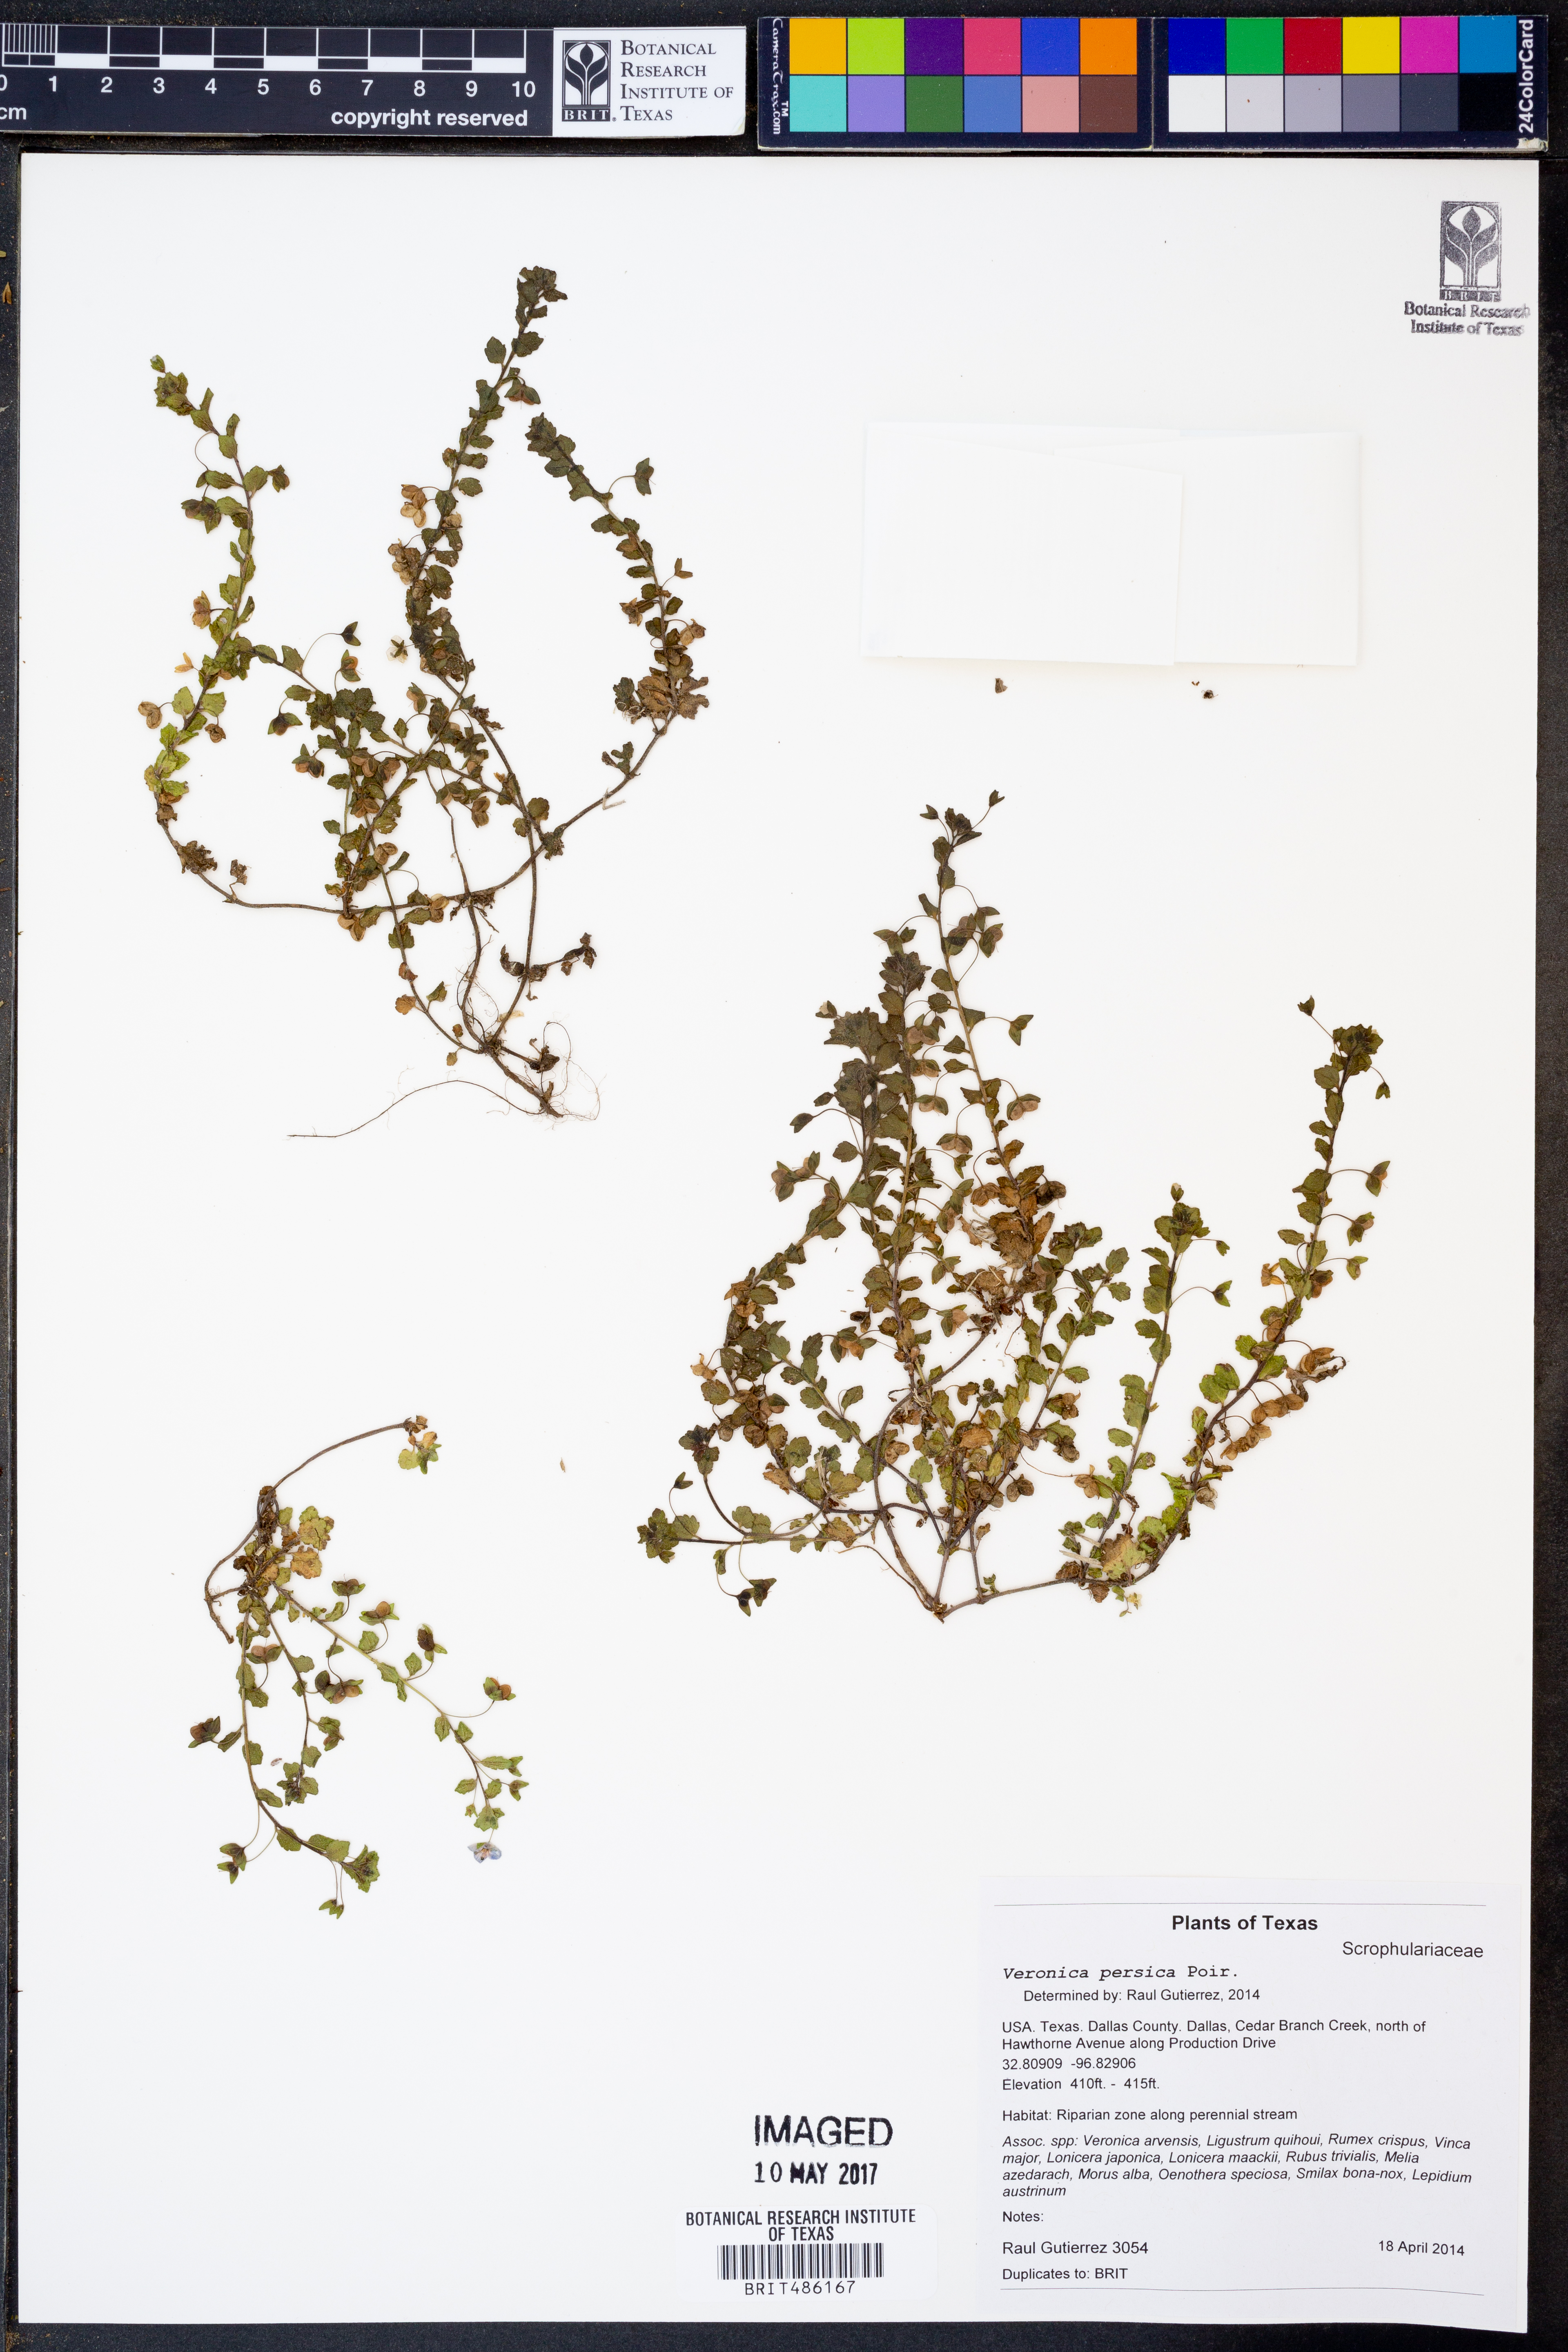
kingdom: Plantae
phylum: Tracheophyta
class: Magnoliopsida
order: Lamiales
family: Plantaginaceae
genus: Veronica
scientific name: Veronica persica
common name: Common field-speedwell
